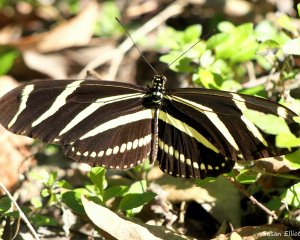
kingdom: Animalia
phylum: Arthropoda
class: Insecta
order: Lepidoptera
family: Nymphalidae
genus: Heliconius
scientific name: Heliconius charithonia
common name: Zebra Longwing
